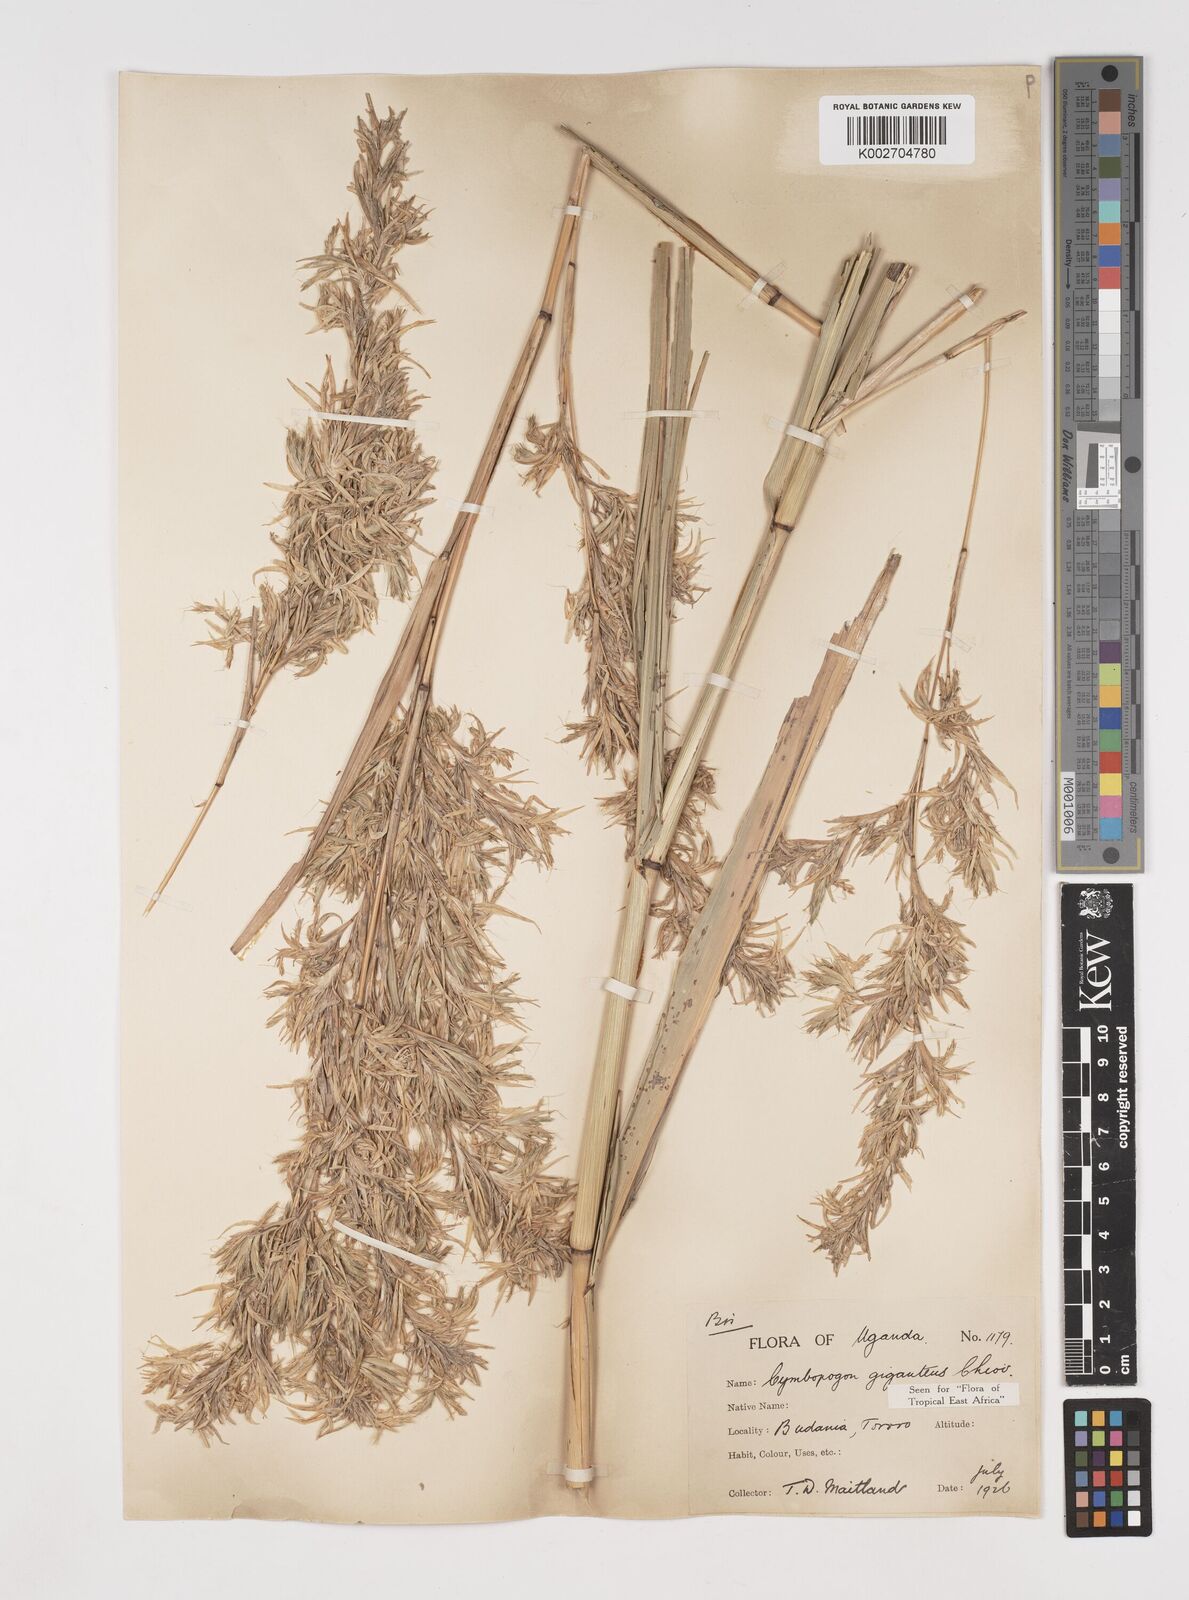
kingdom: Plantae
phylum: Tracheophyta
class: Liliopsida
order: Poales
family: Poaceae
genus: Cymbopogon
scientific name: Cymbopogon giganteus
